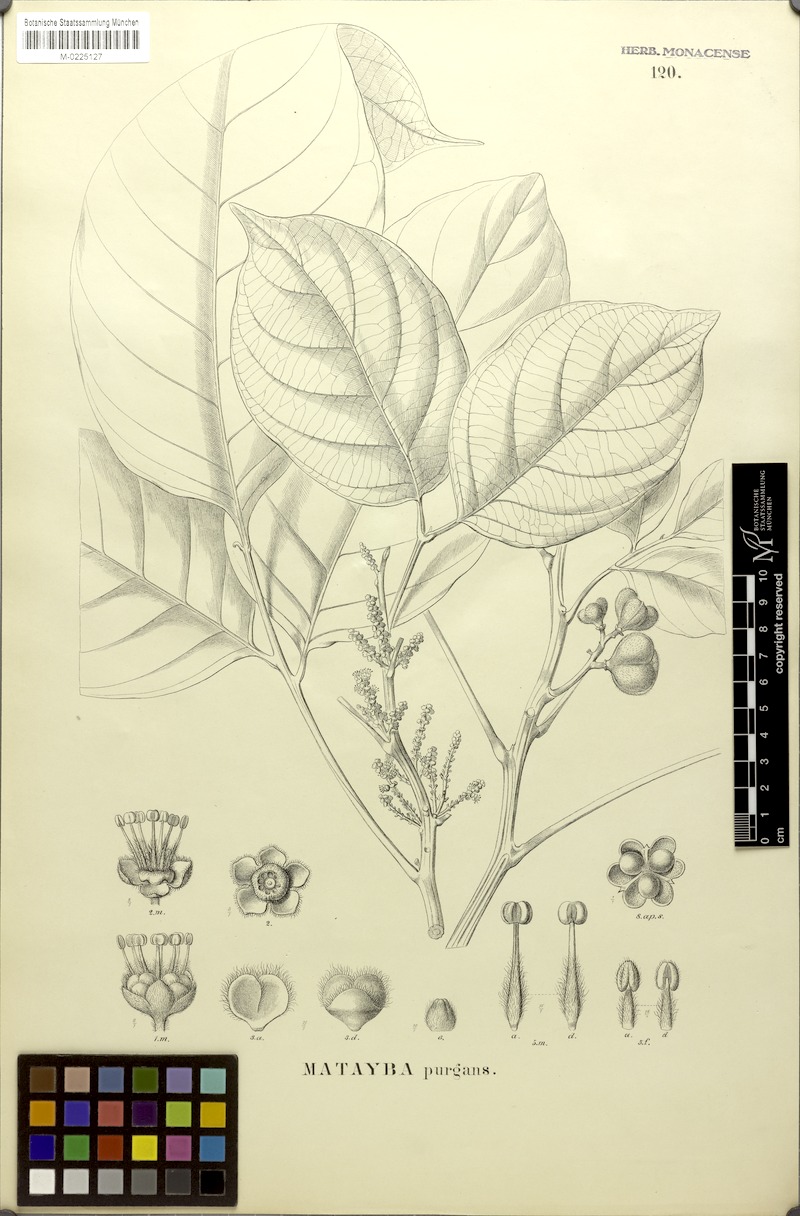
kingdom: Plantae
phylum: Tracheophyta
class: Magnoliopsida
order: Sapindales
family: Sapindaceae
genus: Matayba
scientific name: Matayba purgans
